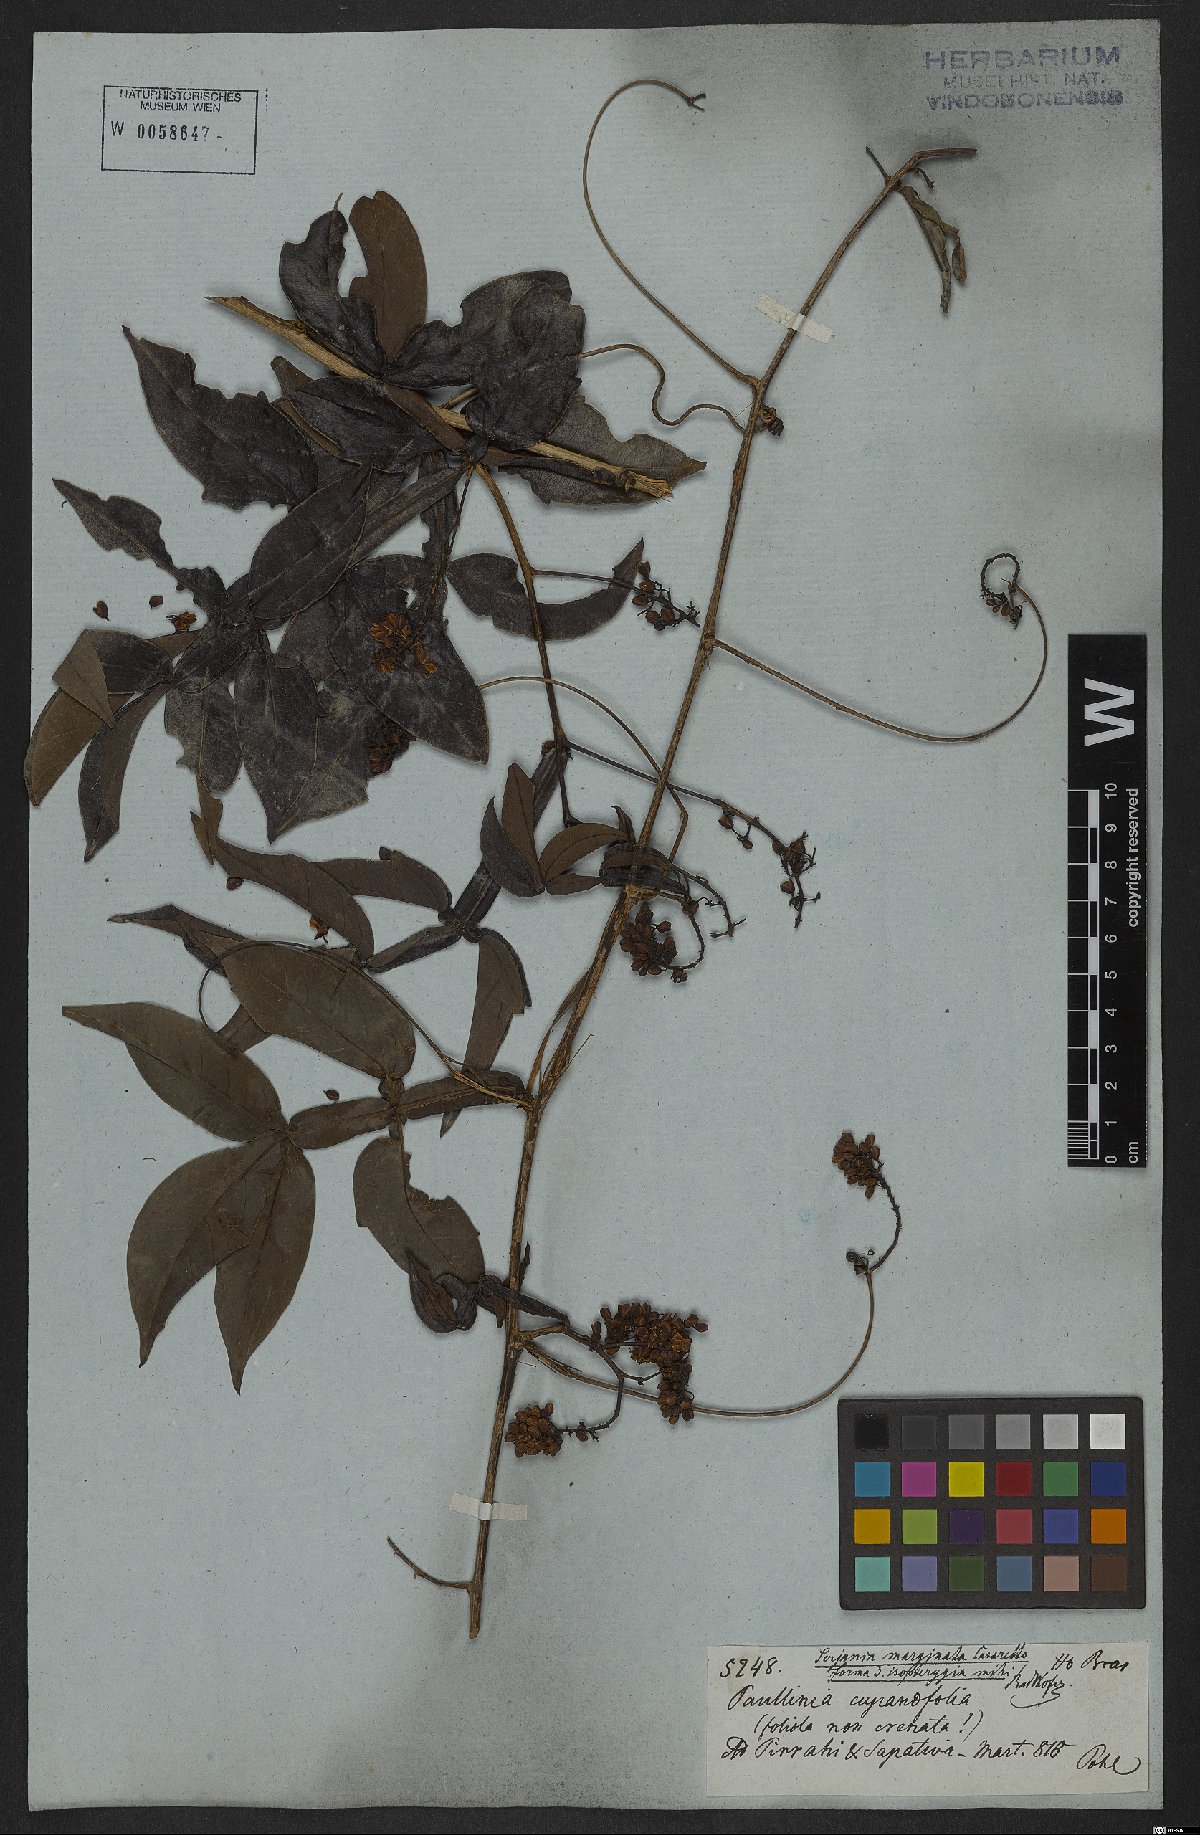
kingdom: Plantae
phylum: Tracheophyta
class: Magnoliopsida
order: Sapindales
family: Sapindaceae
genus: Serjania
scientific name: Serjania marginata
